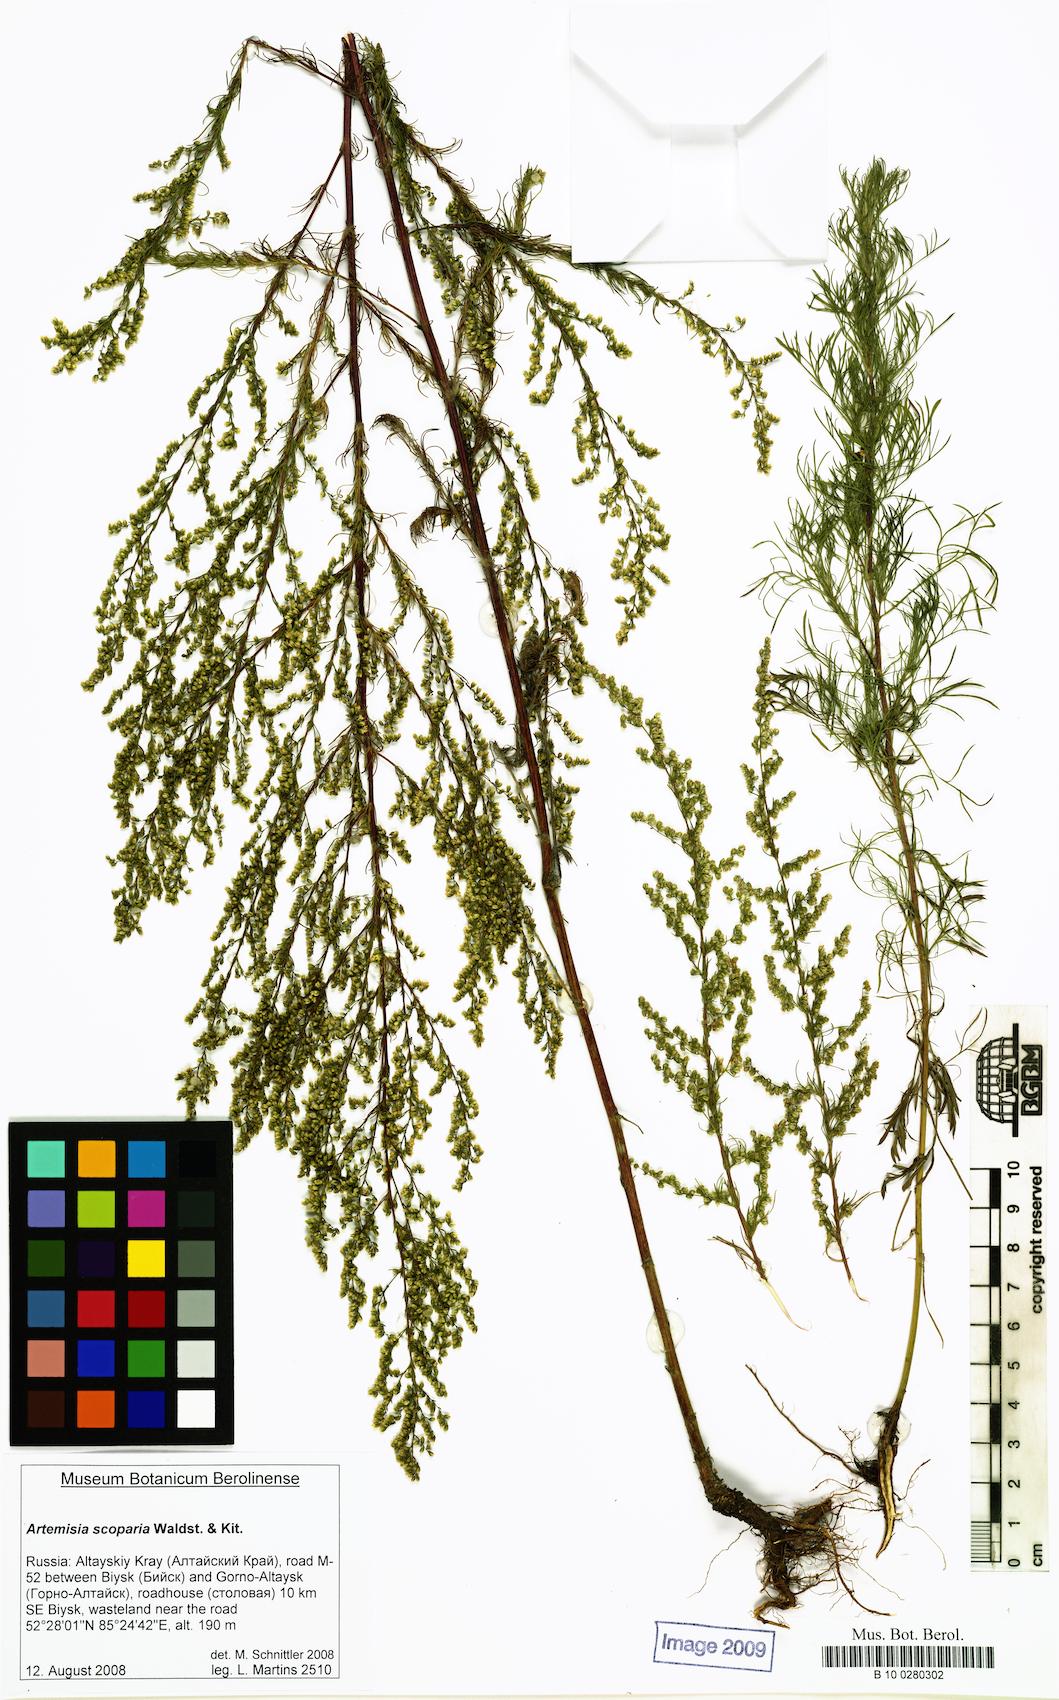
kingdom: Plantae
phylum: Tracheophyta
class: Magnoliopsida
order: Asterales
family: Asteraceae
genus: Artemisia
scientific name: Artemisia scoparia
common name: Redstem wormwood
